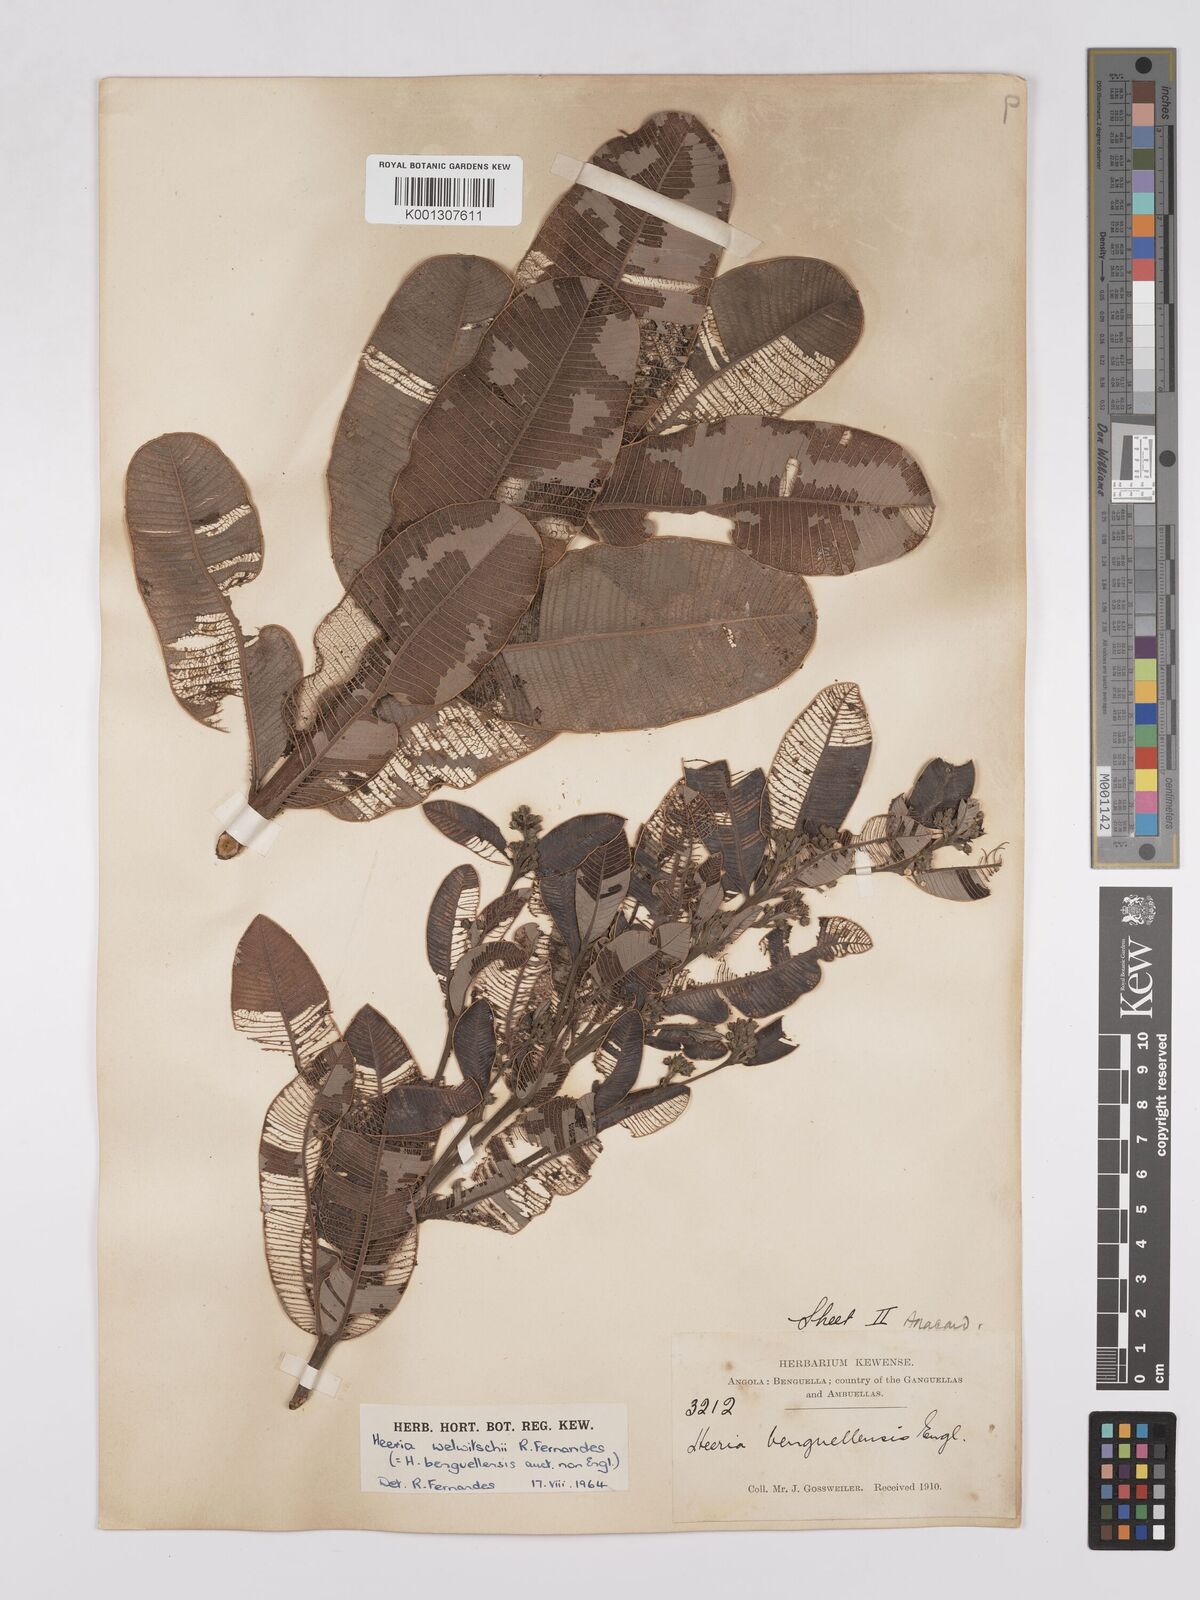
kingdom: Plantae
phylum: Tracheophyta
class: Magnoliopsida
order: Sapindales
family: Anacardiaceae
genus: Ozoroa
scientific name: Ozoroa benguellensis
